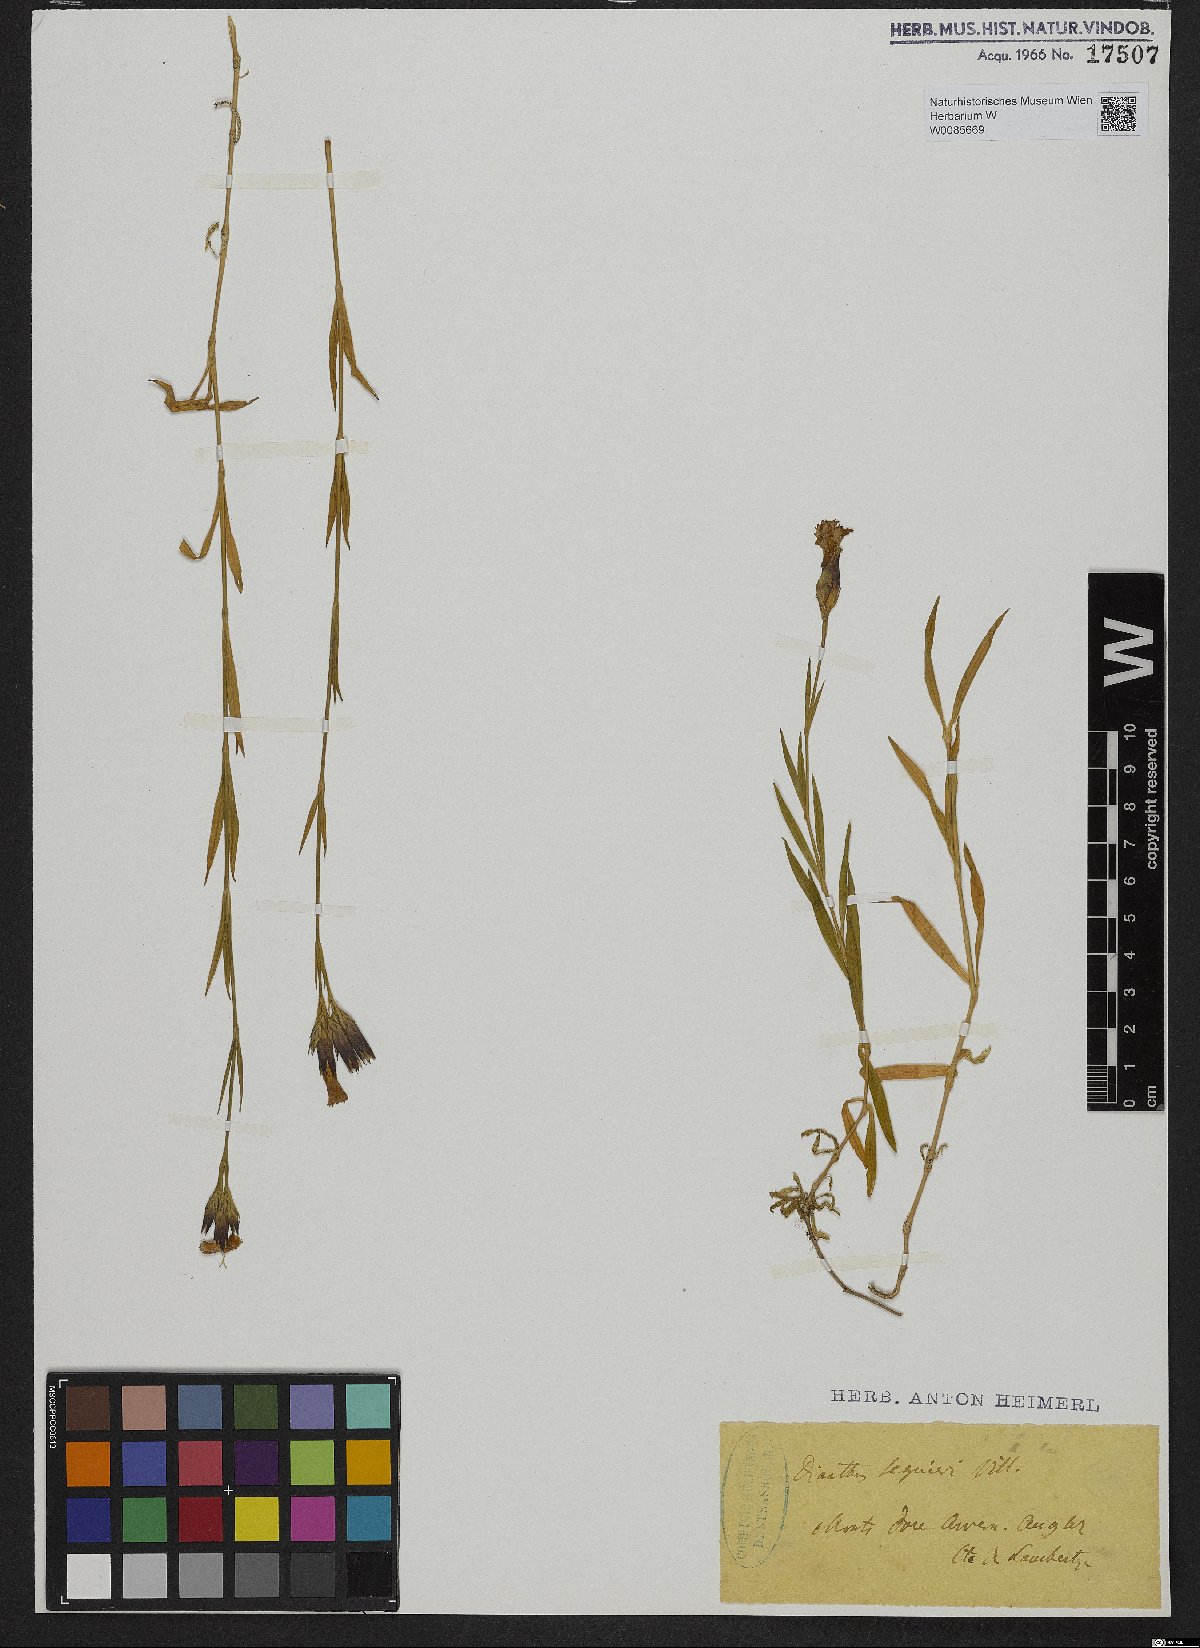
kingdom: Plantae
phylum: Tracheophyta
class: Magnoliopsida
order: Caryophyllales
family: Caryophyllaceae
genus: Dianthus
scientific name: Dianthus seguieri
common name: Ragged pink
